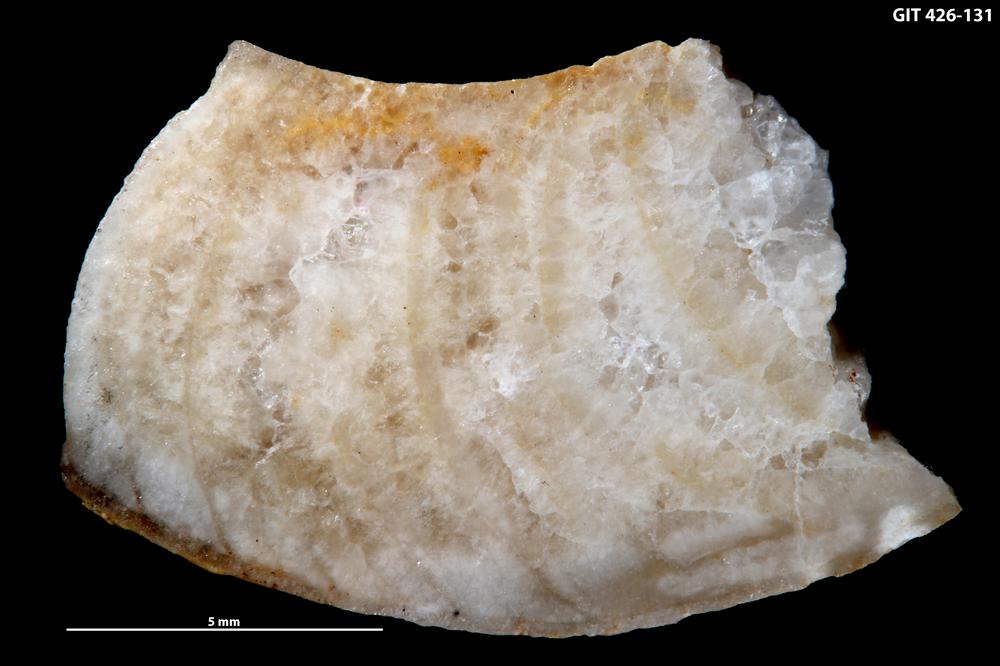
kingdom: Animalia
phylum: Mollusca
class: Cephalopoda
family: Barrandeoceratidae
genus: Vasalemmoceras
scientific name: Vasalemmoceras tolerabile
